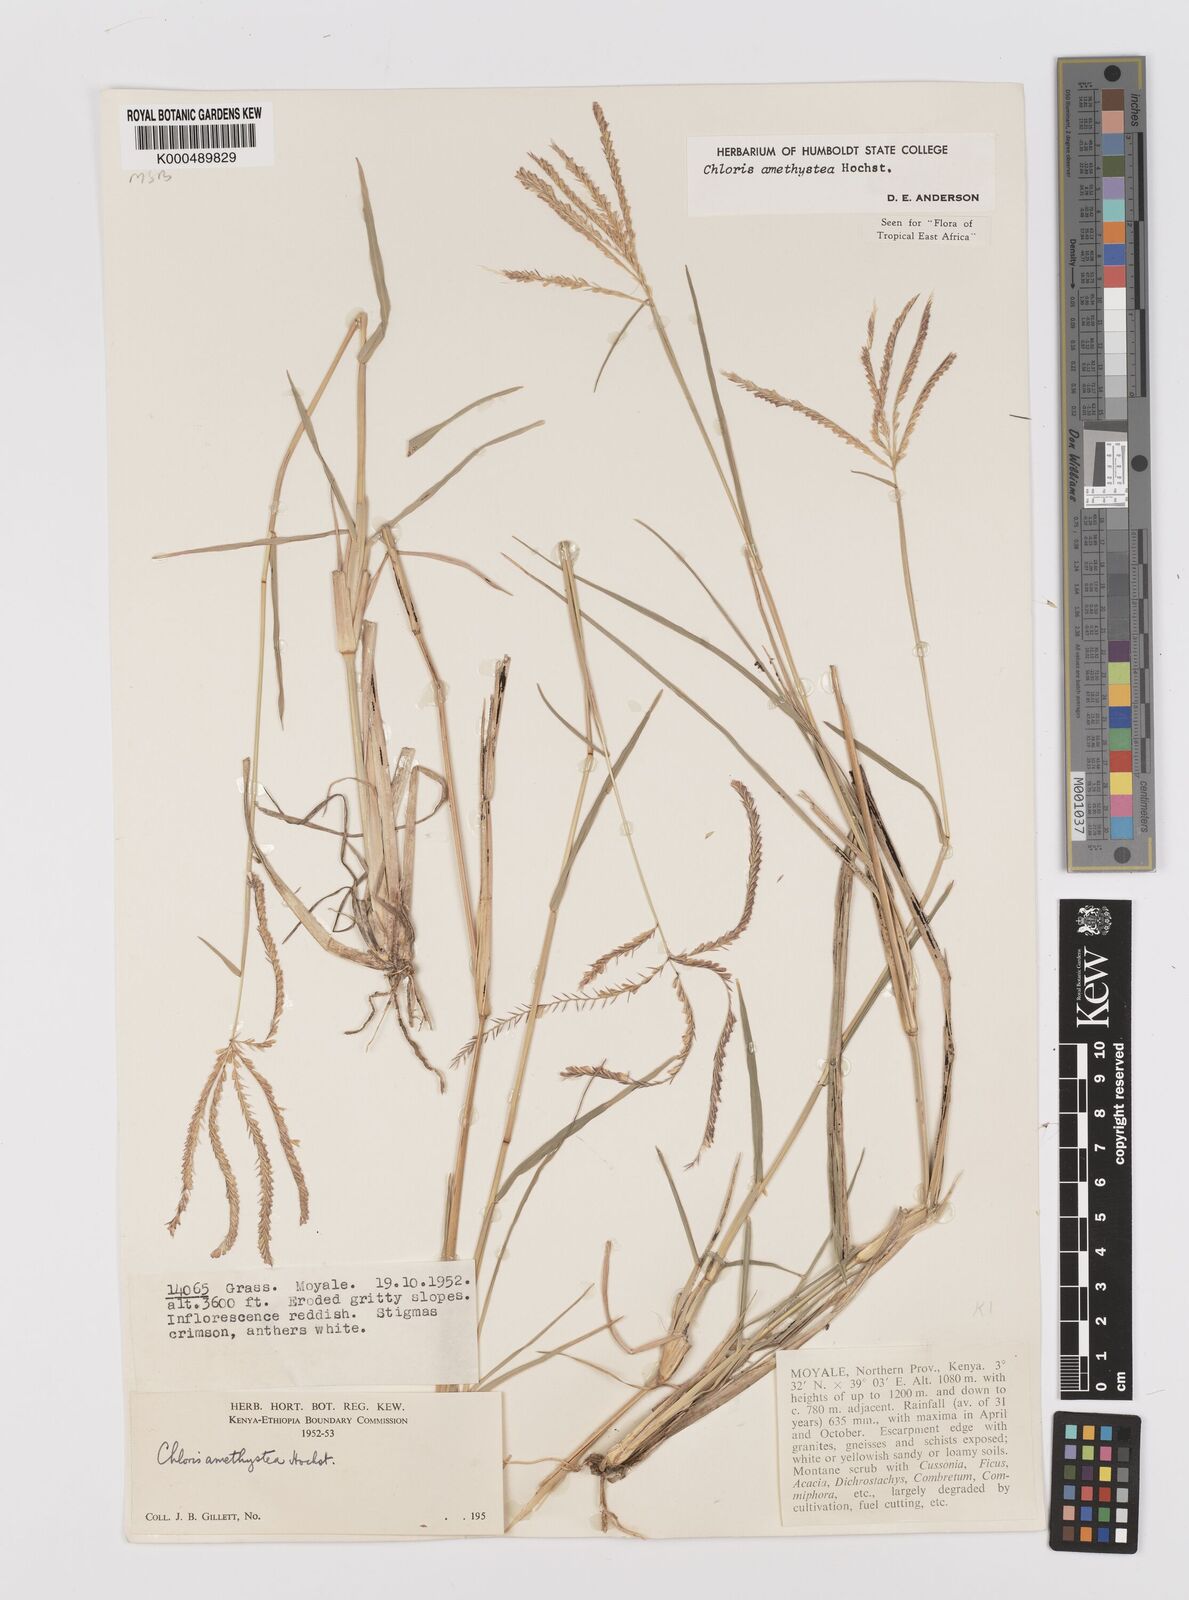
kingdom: Plantae
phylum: Tracheophyta
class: Liliopsida
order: Poales
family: Poaceae
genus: Chloris
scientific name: Chloris amethystea
